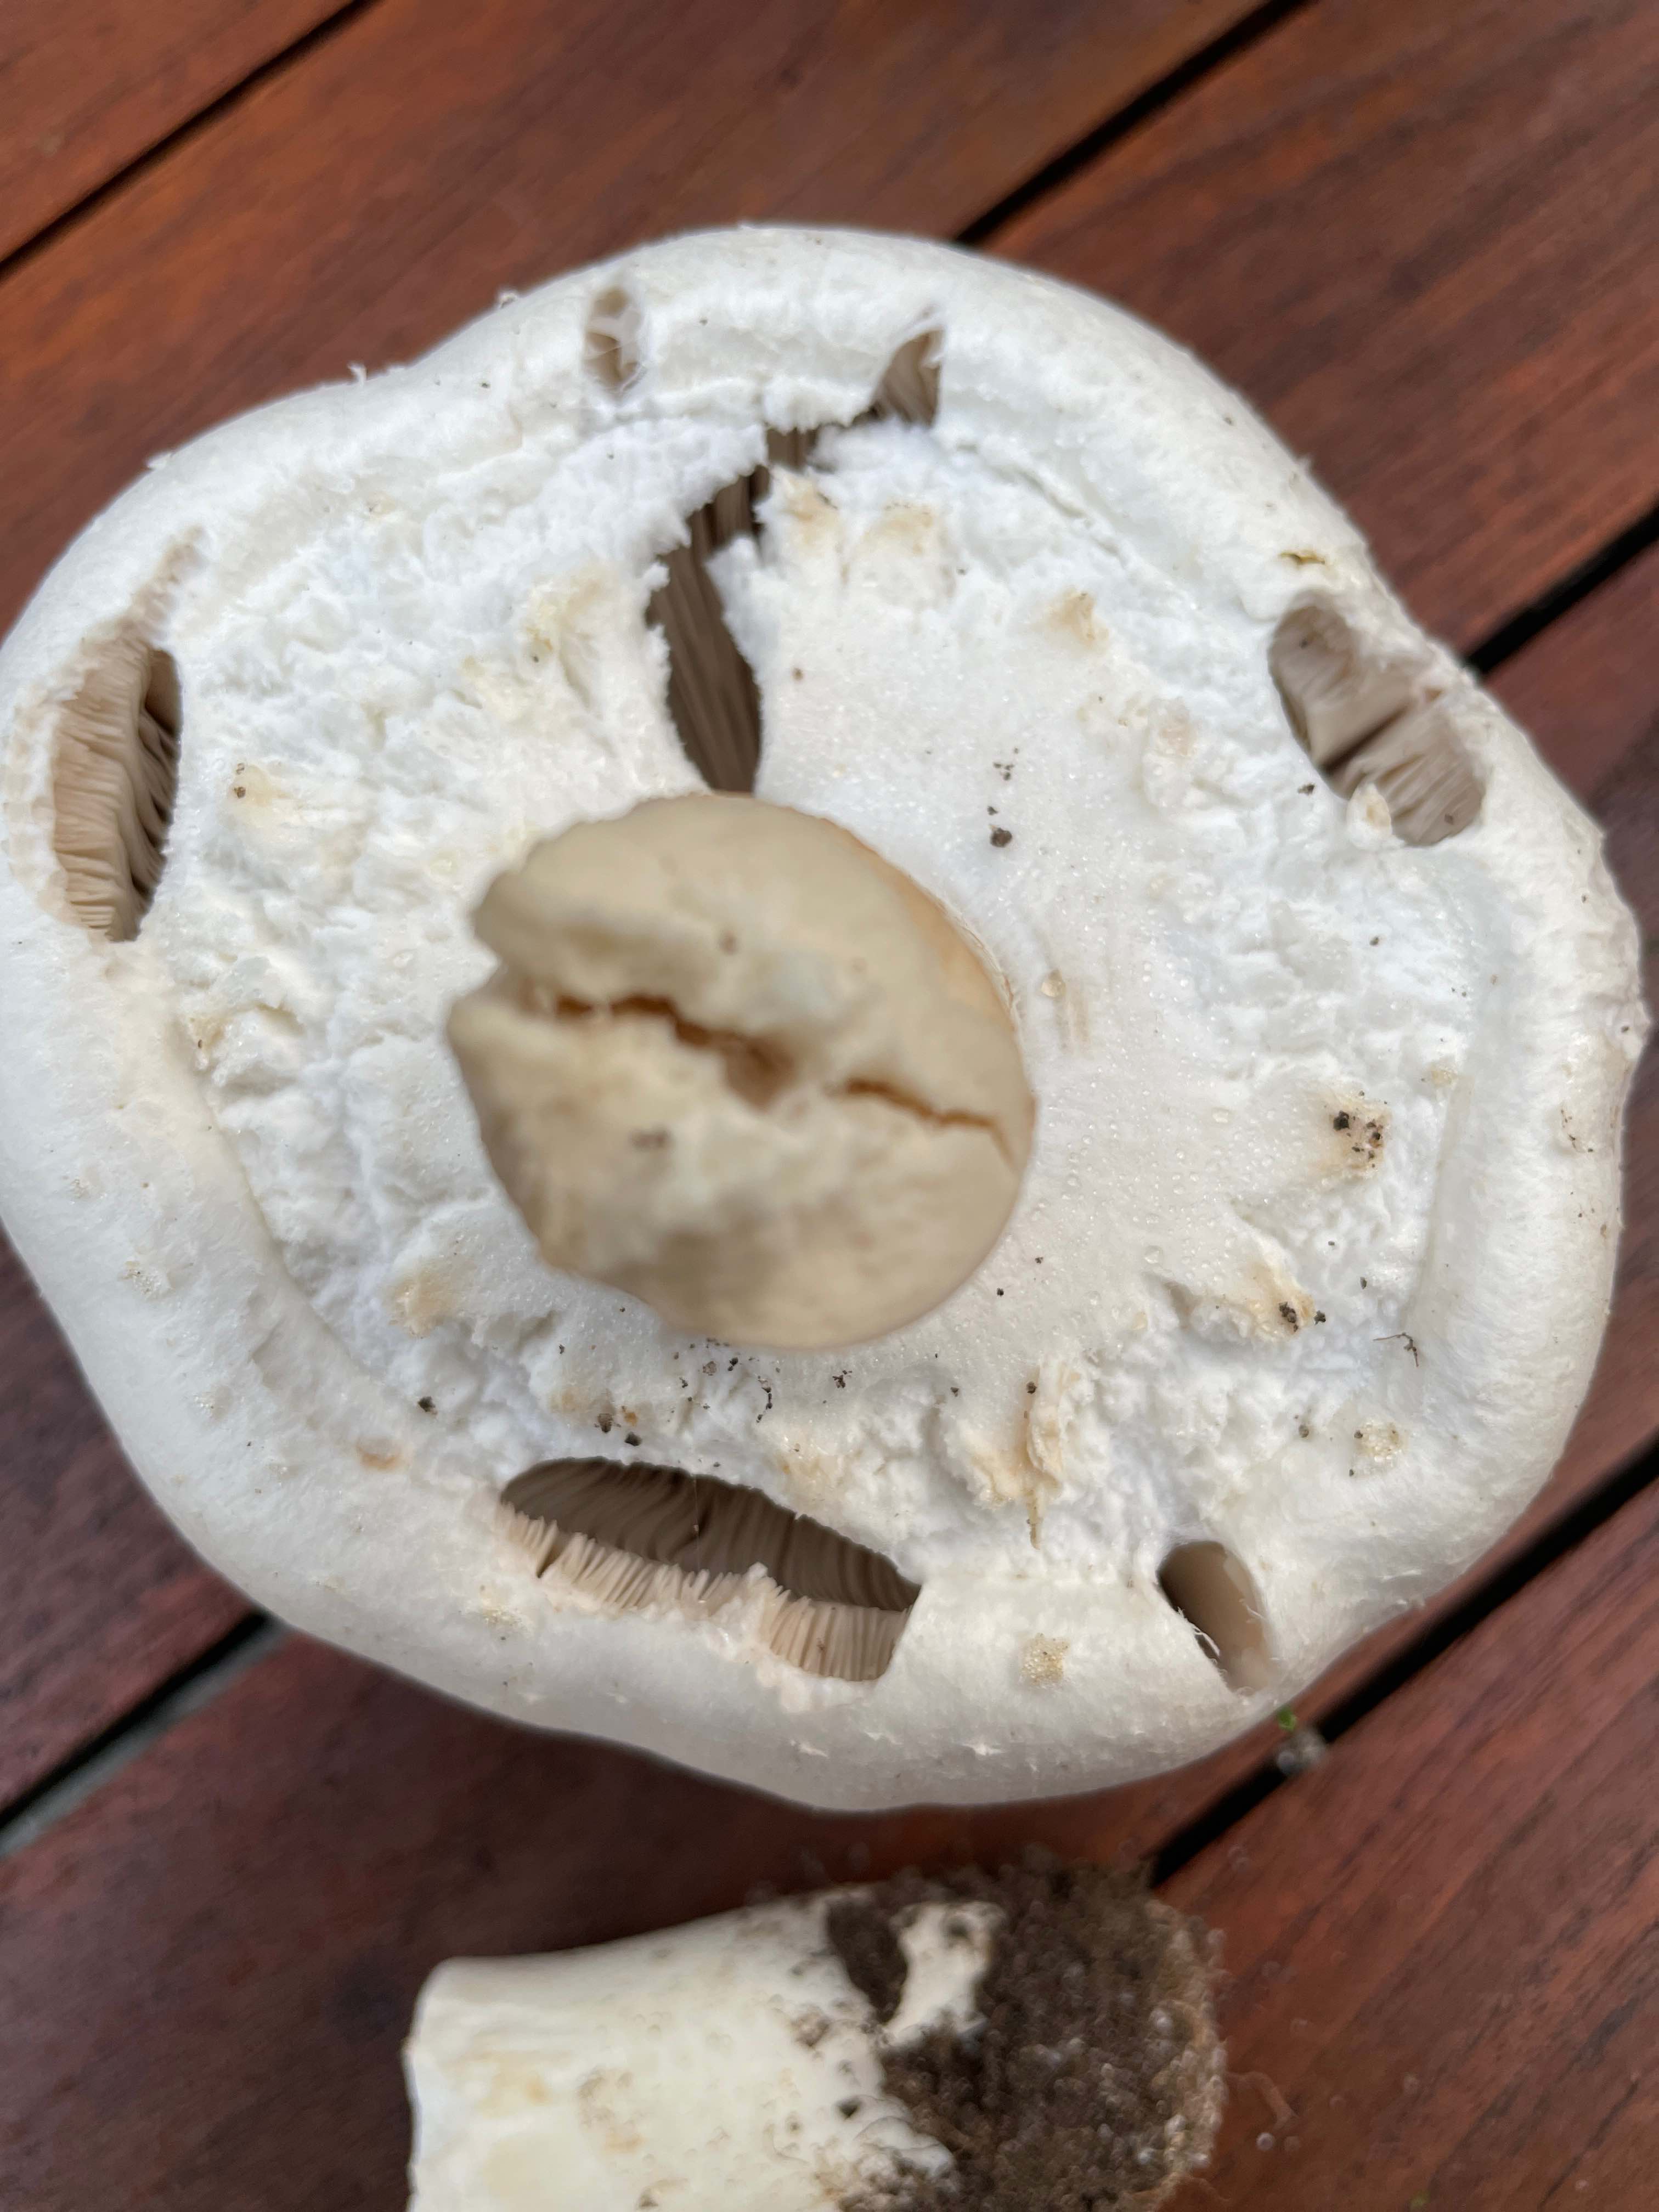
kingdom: Fungi
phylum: Basidiomycota
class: Agaricomycetes
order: Agaricales
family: Agaricaceae
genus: Agaricus
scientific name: Agaricus
